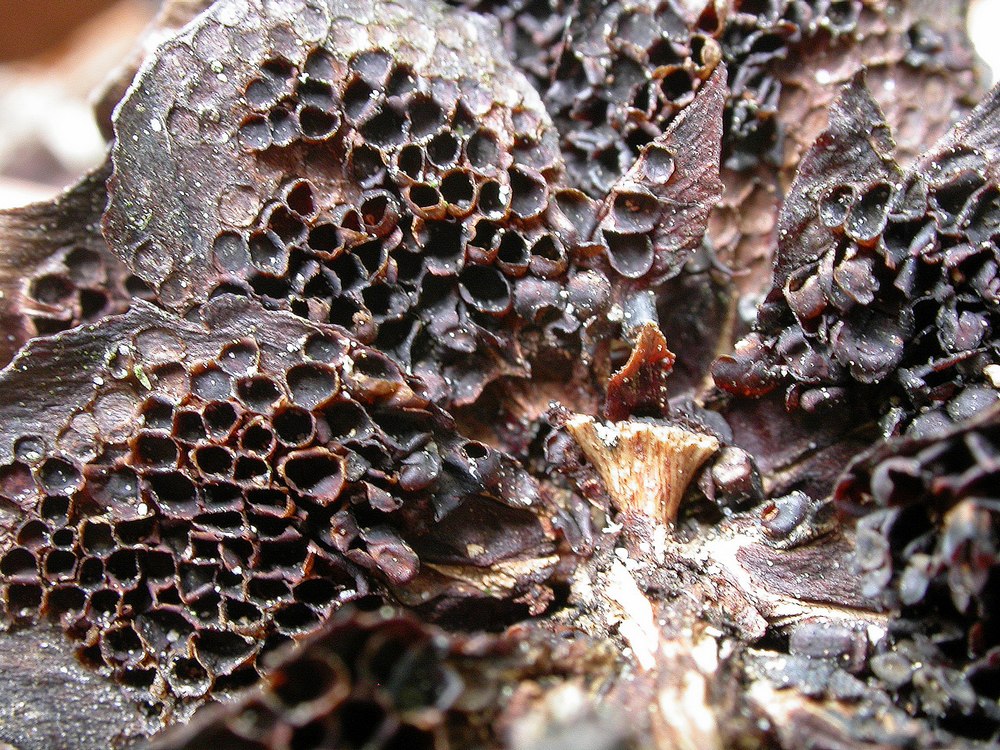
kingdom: Fungi
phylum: Basidiomycota
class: Pucciniomycetes
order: Pucciniales
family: Pucciniastraceae
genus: Thekopsora
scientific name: Thekopsora areolata
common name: grankogle-nålerust
